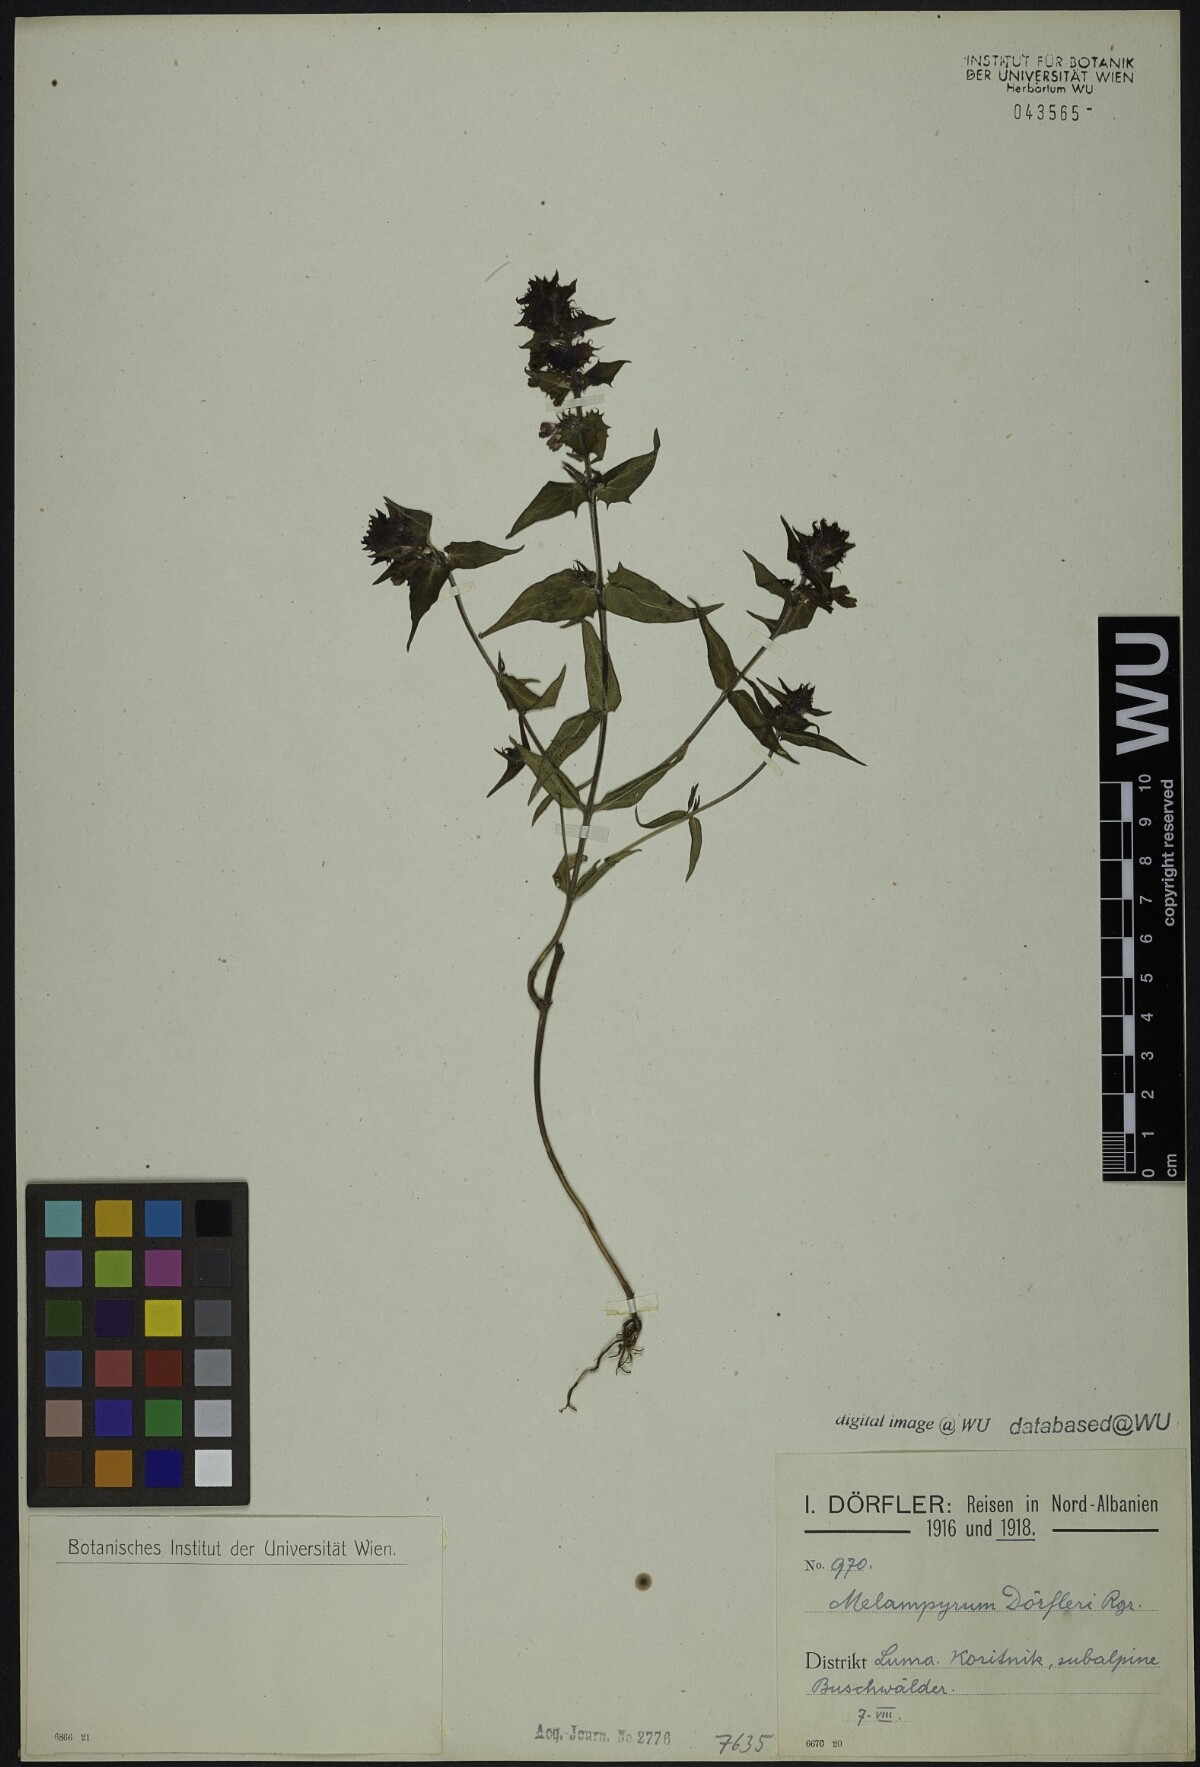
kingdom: Plantae
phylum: Tracheophyta
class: Magnoliopsida
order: Lamiales
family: Orobanchaceae
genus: Melampyrum
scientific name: Melampyrum doerfleri
